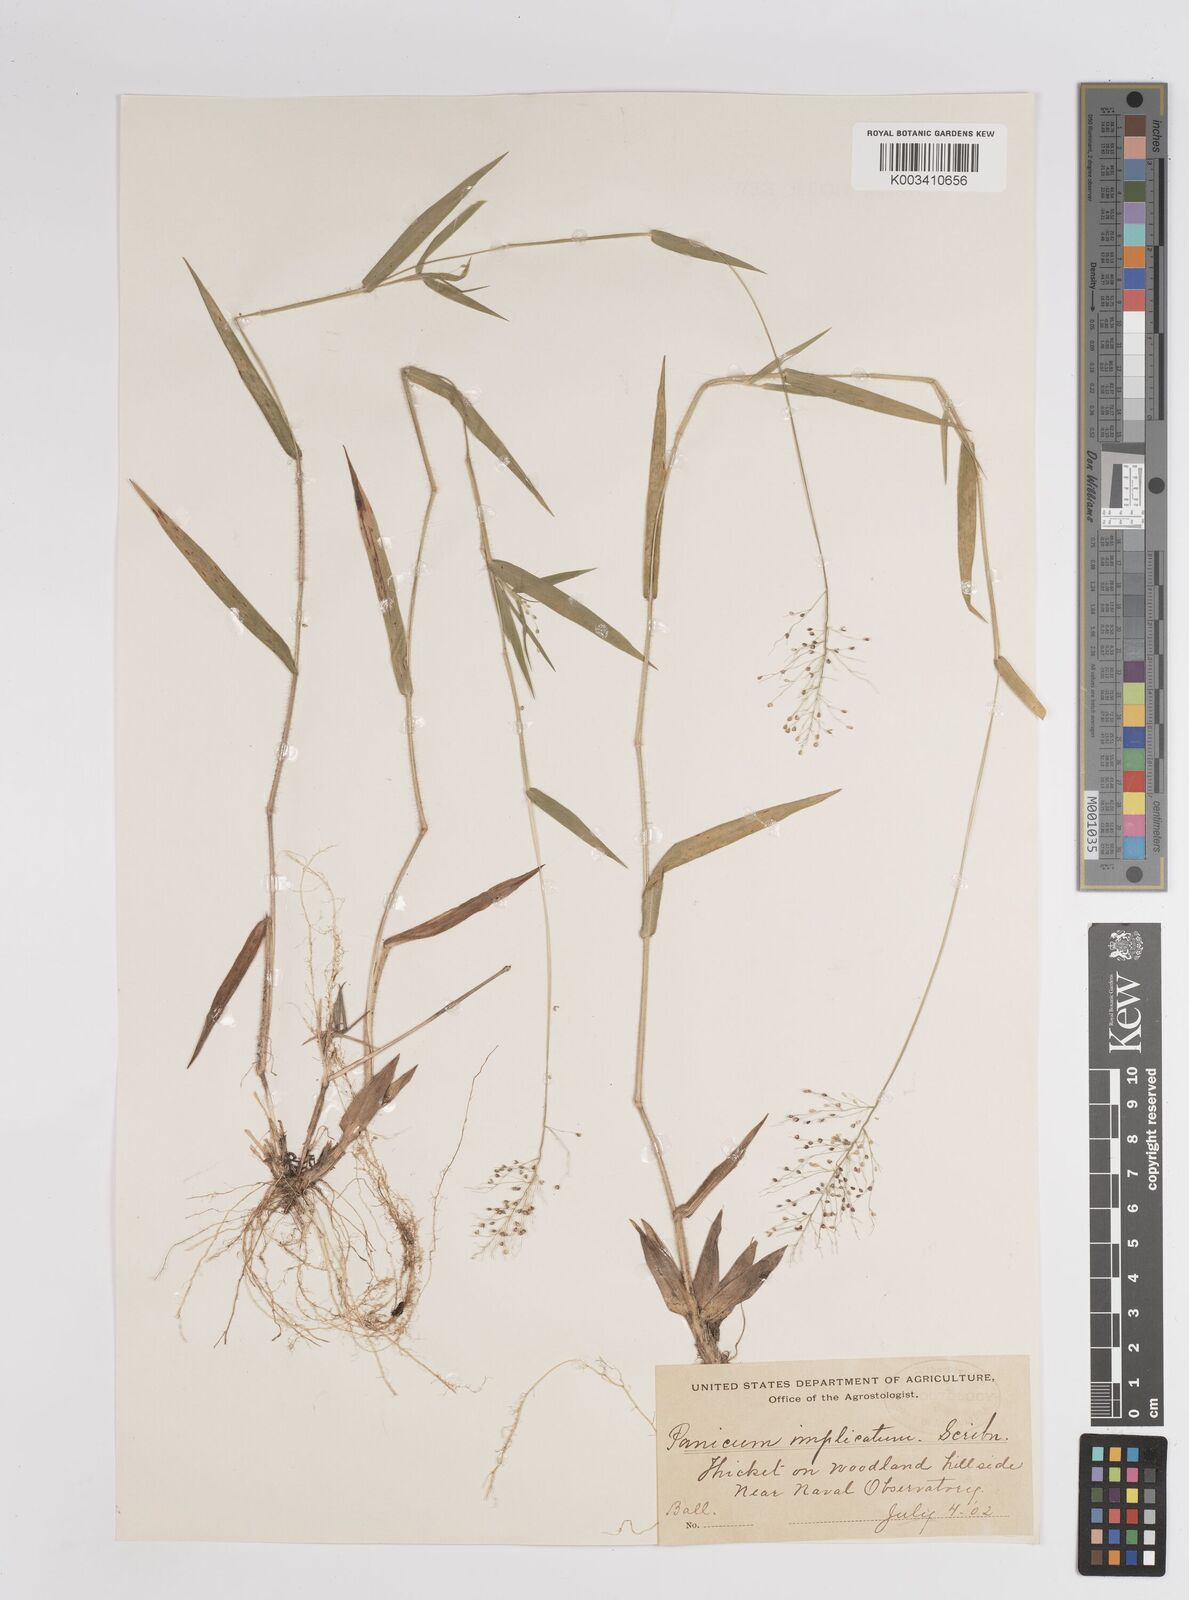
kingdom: Plantae
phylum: Tracheophyta
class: Liliopsida
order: Poales
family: Poaceae
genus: Dichanthelium
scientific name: Dichanthelium implicatum
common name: Slender-stemmed panicgrass
